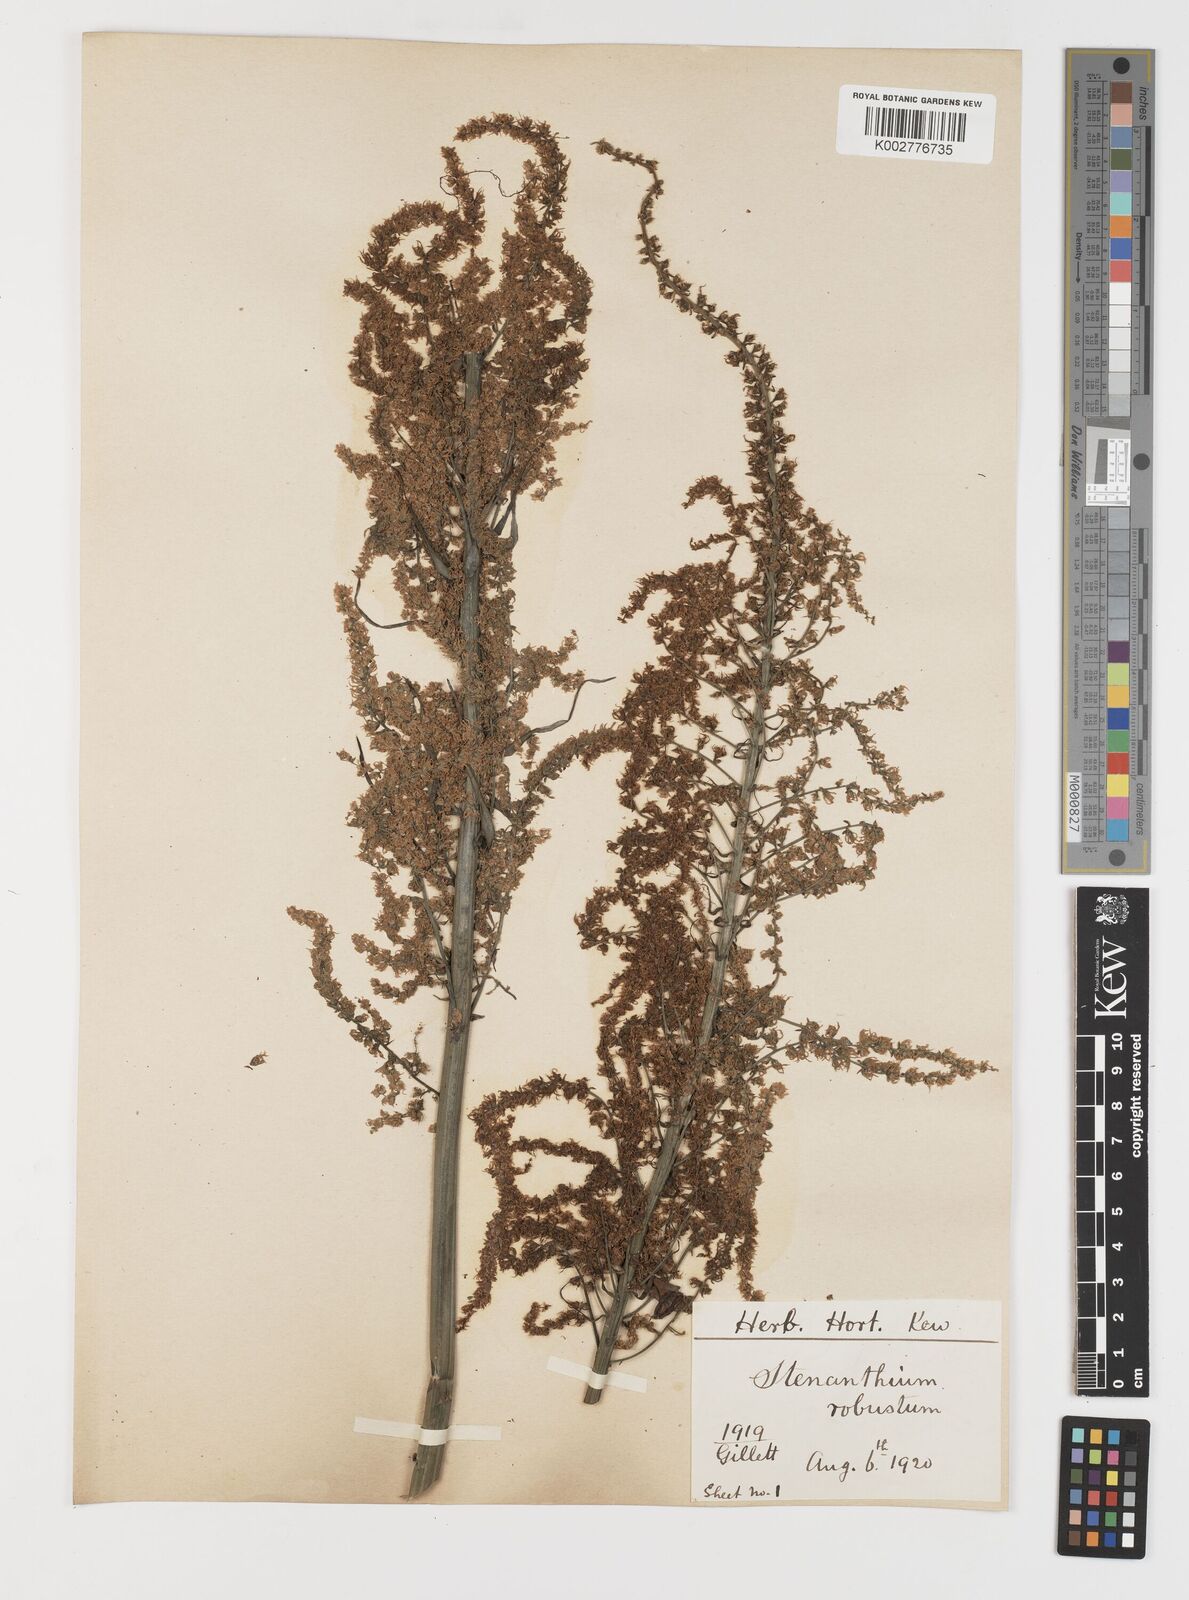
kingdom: Plantae
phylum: Tracheophyta
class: Liliopsida
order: Liliales
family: Melanthiaceae
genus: Stenanthium
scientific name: Stenanthium gramineum
